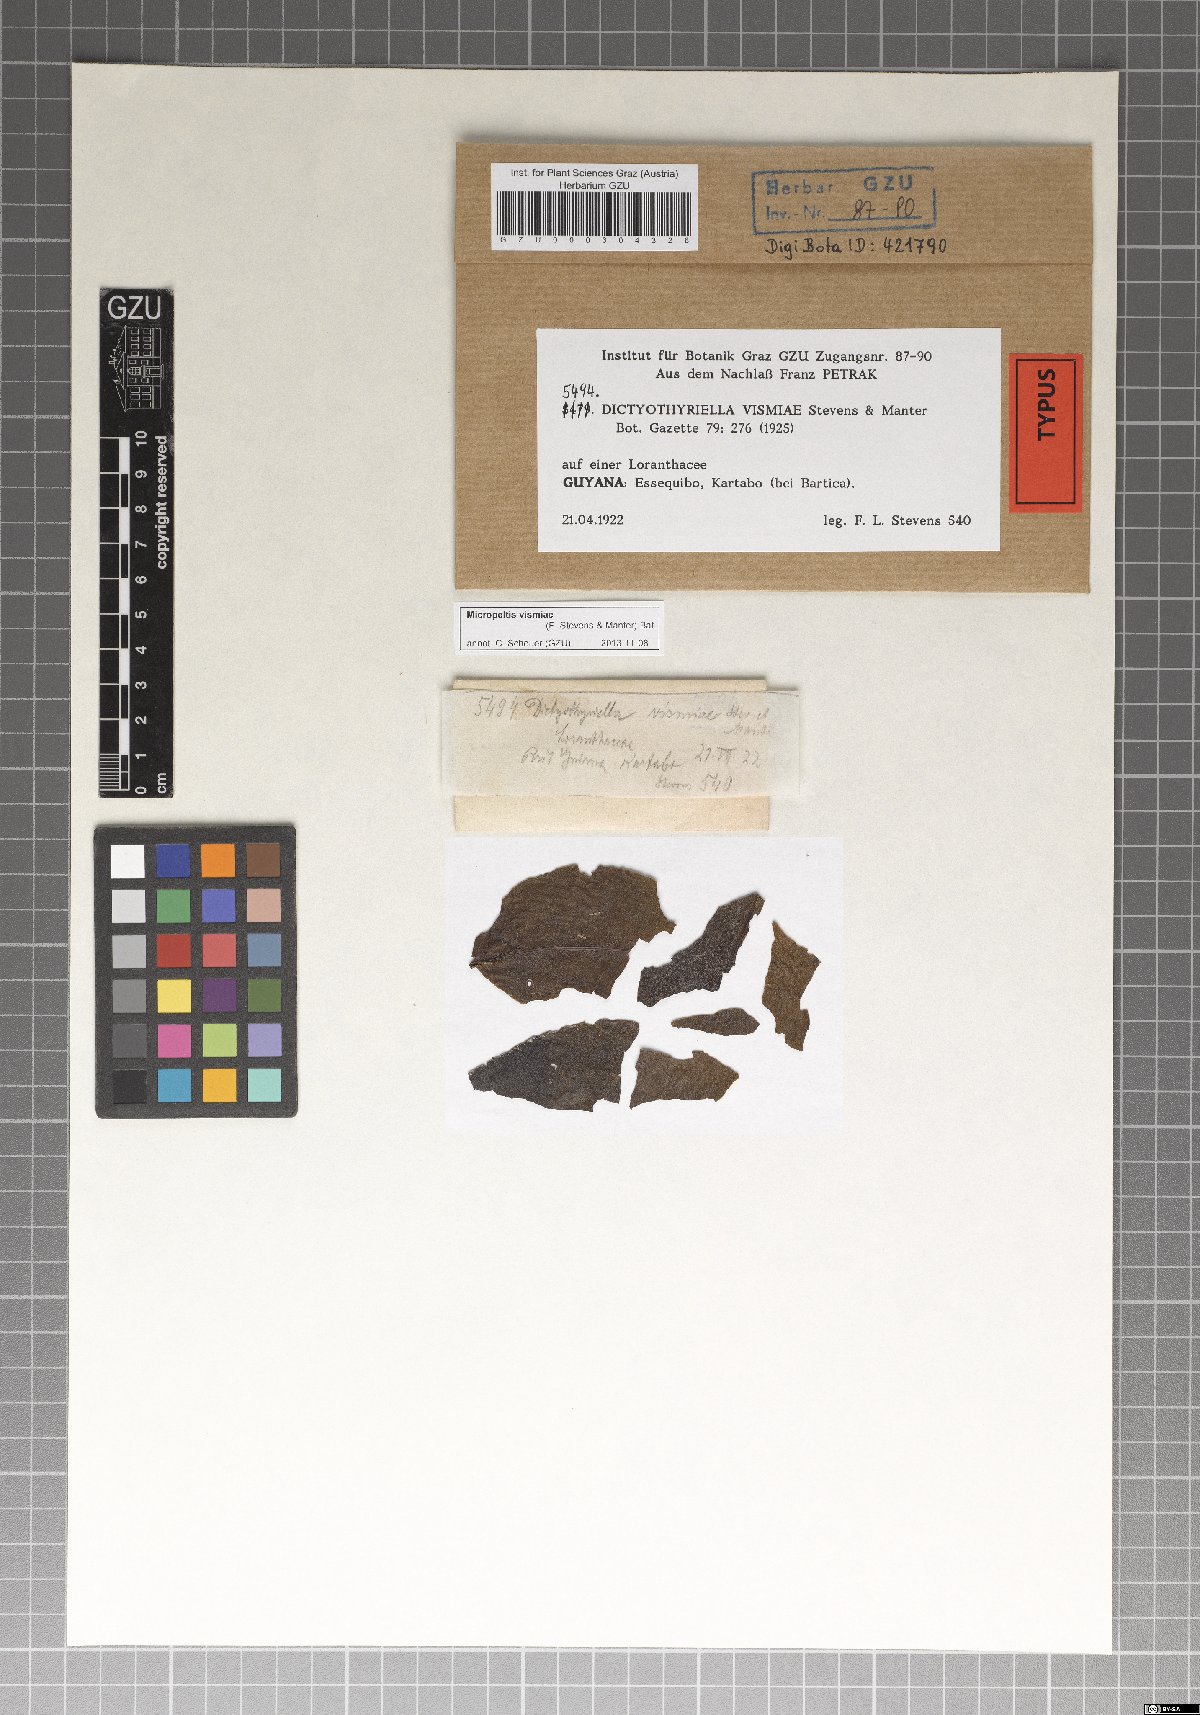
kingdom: Fungi
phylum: Ascomycota
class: Dothideomycetes
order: Microthyriales
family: Micropeltidaceae
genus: Micropeltis
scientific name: Micropeltis vismiae
